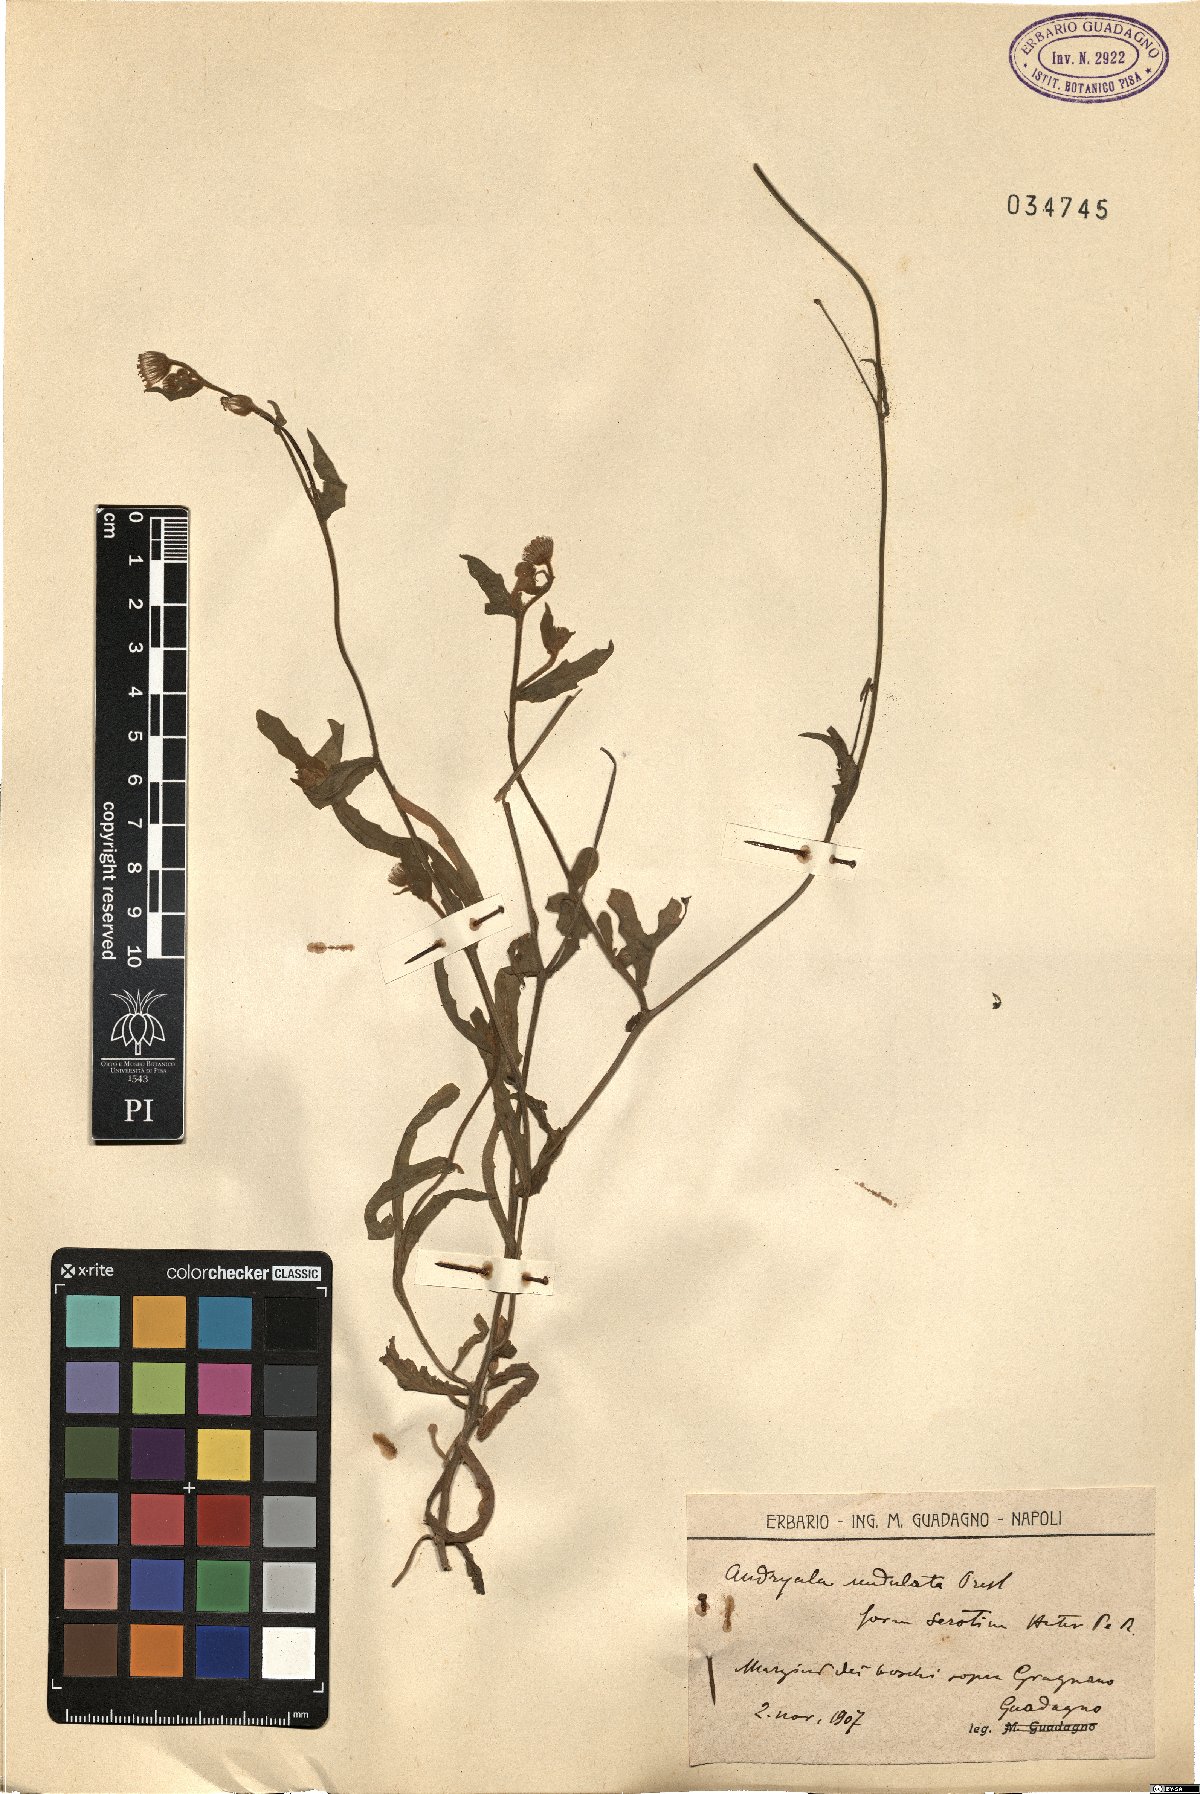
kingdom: Plantae
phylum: Tracheophyta
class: Magnoliopsida
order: Asterales
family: Asteraceae
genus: Andryala
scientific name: Andryala integrifolia
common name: Common andryala
